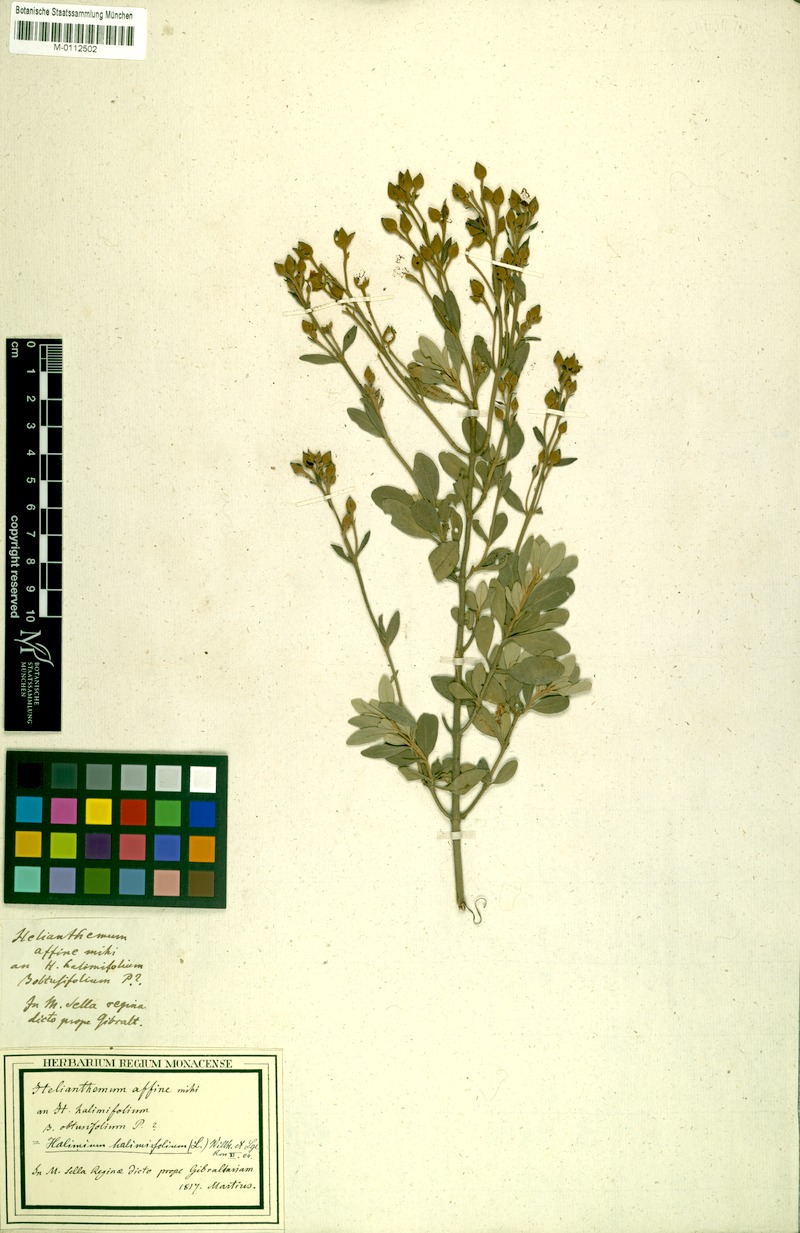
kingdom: Plantae
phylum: Tracheophyta
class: Magnoliopsida
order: Malvales
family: Cistaceae
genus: Helianthemum
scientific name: Helianthemum hirtum
